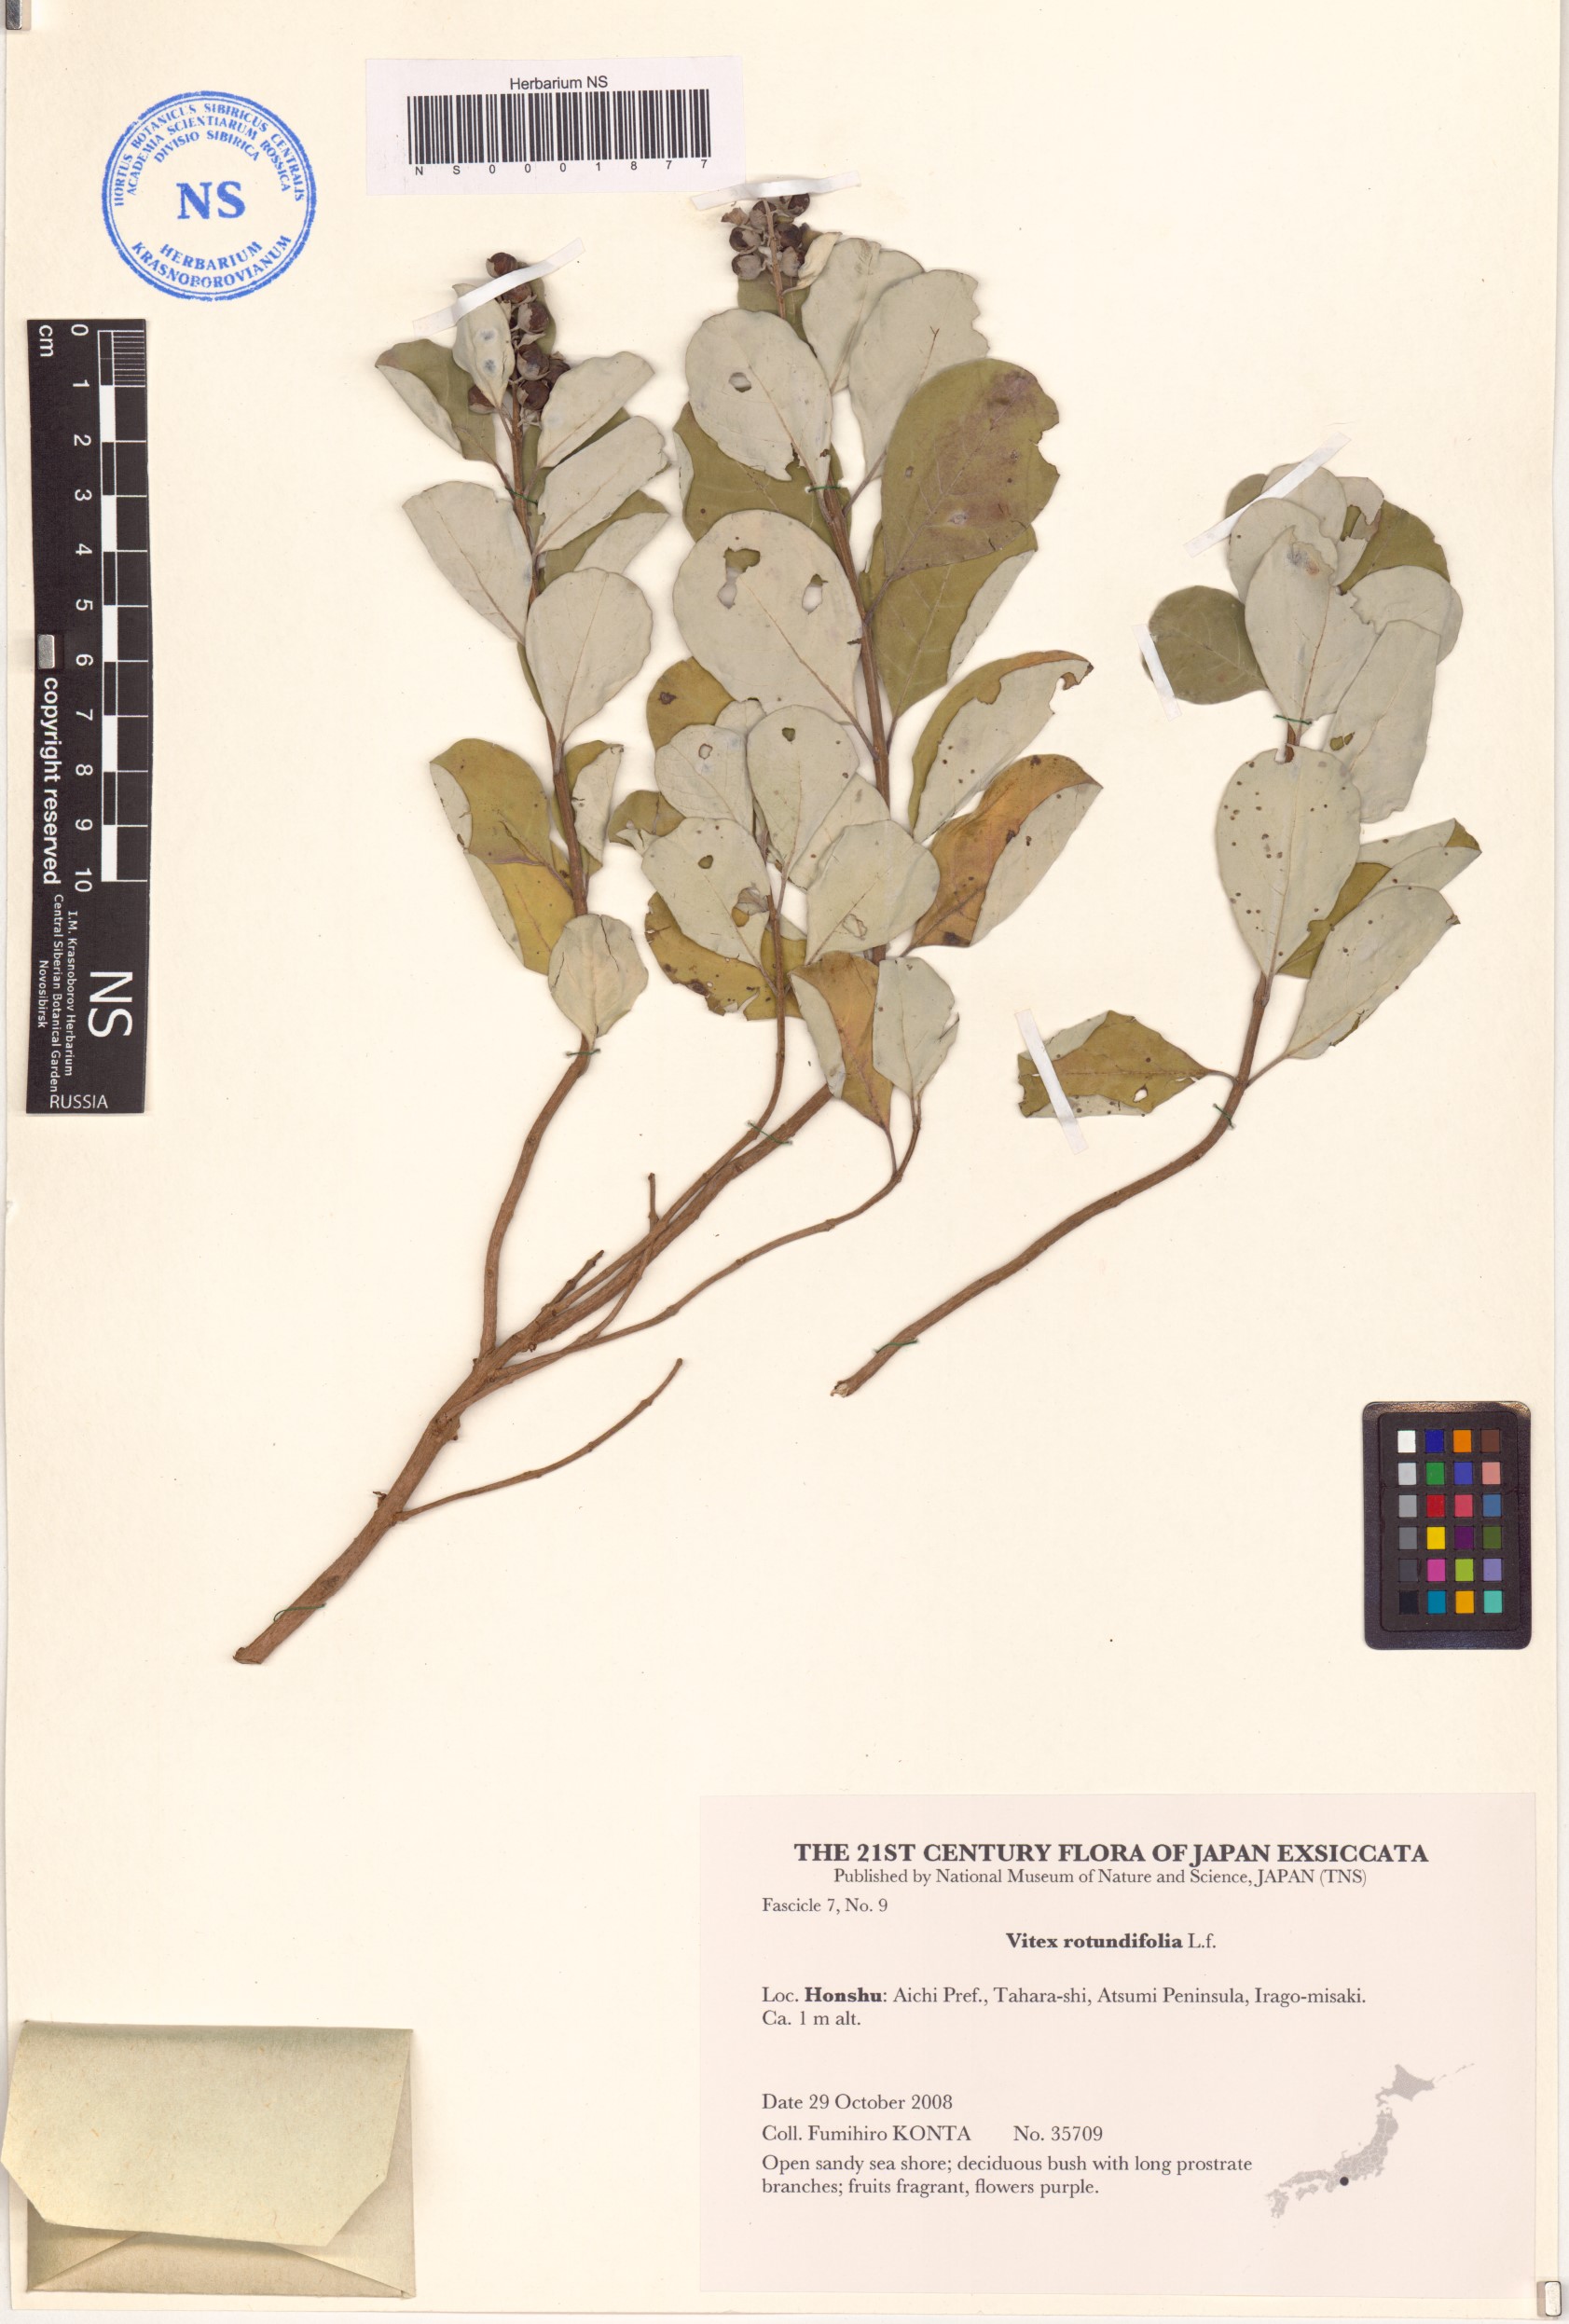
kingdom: Plantae
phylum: Tracheophyta
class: Magnoliopsida
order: Lamiales
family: Lamiaceae
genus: Vitex
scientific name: Vitex rotundifolia
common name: Beach vitex
